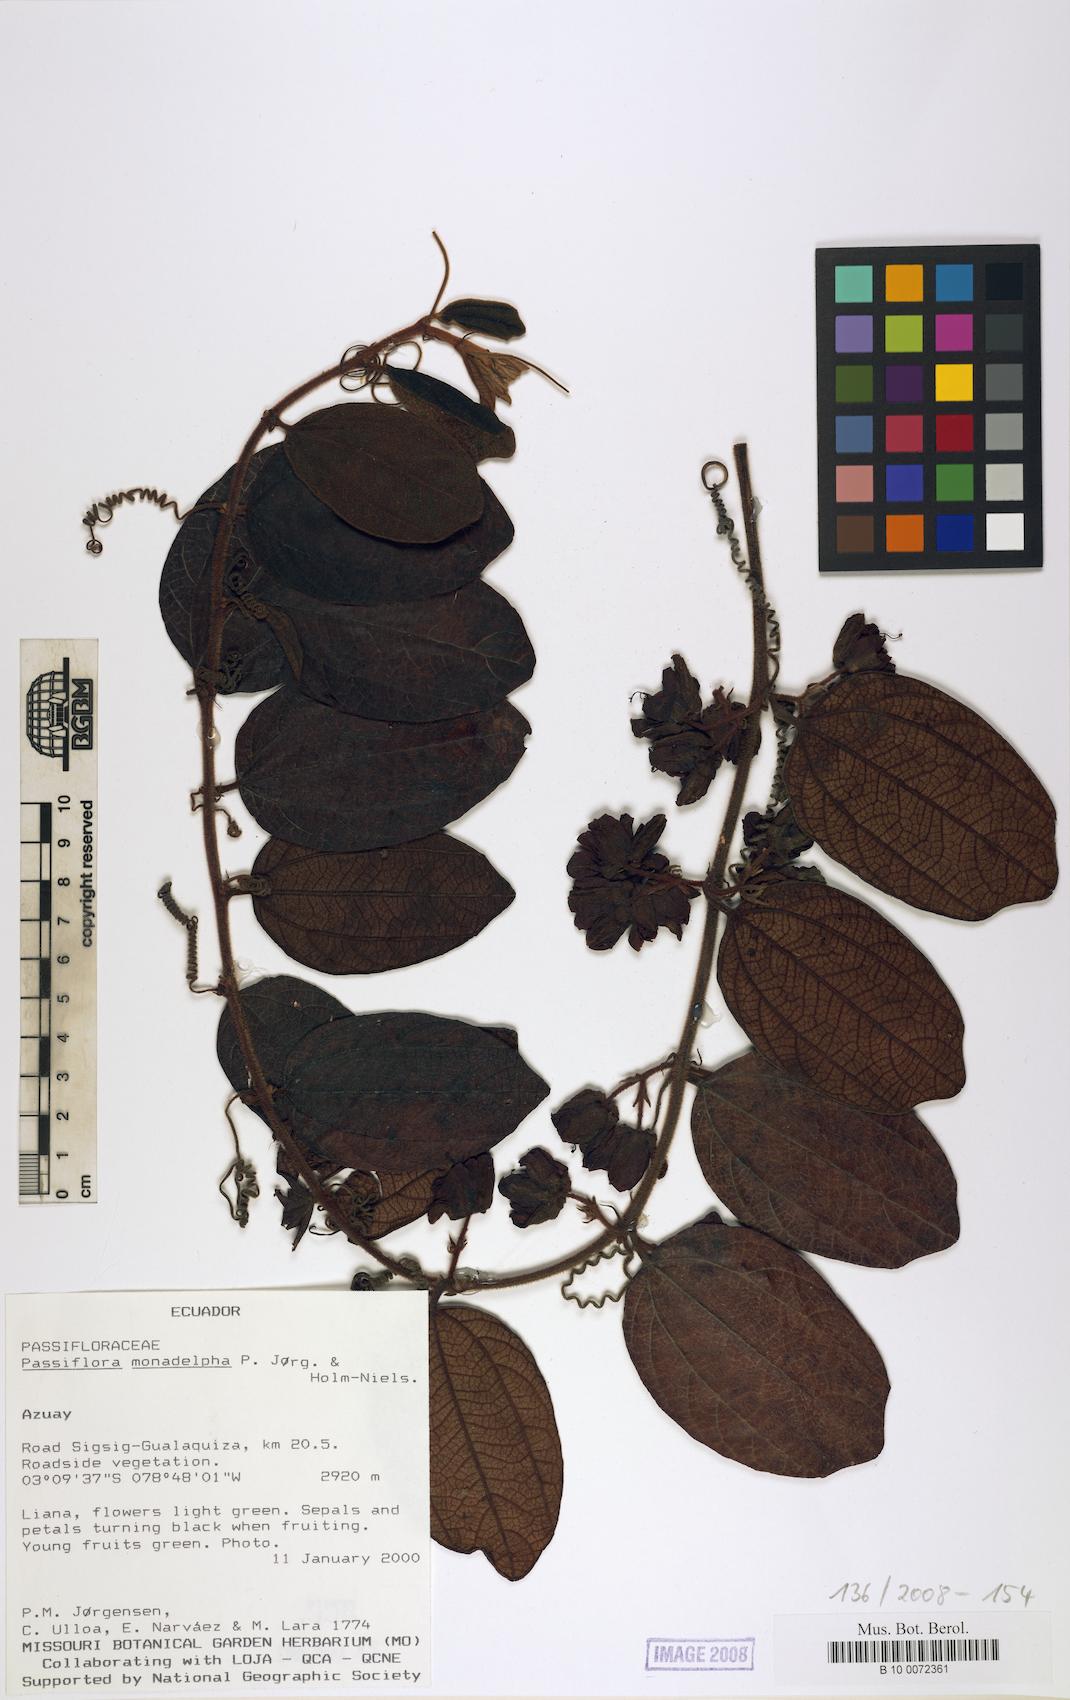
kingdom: Plantae
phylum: Tracheophyta
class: Magnoliopsida
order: Malpighiales
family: Passifloraceae
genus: Passiflora
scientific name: Passiflora monadelpha
